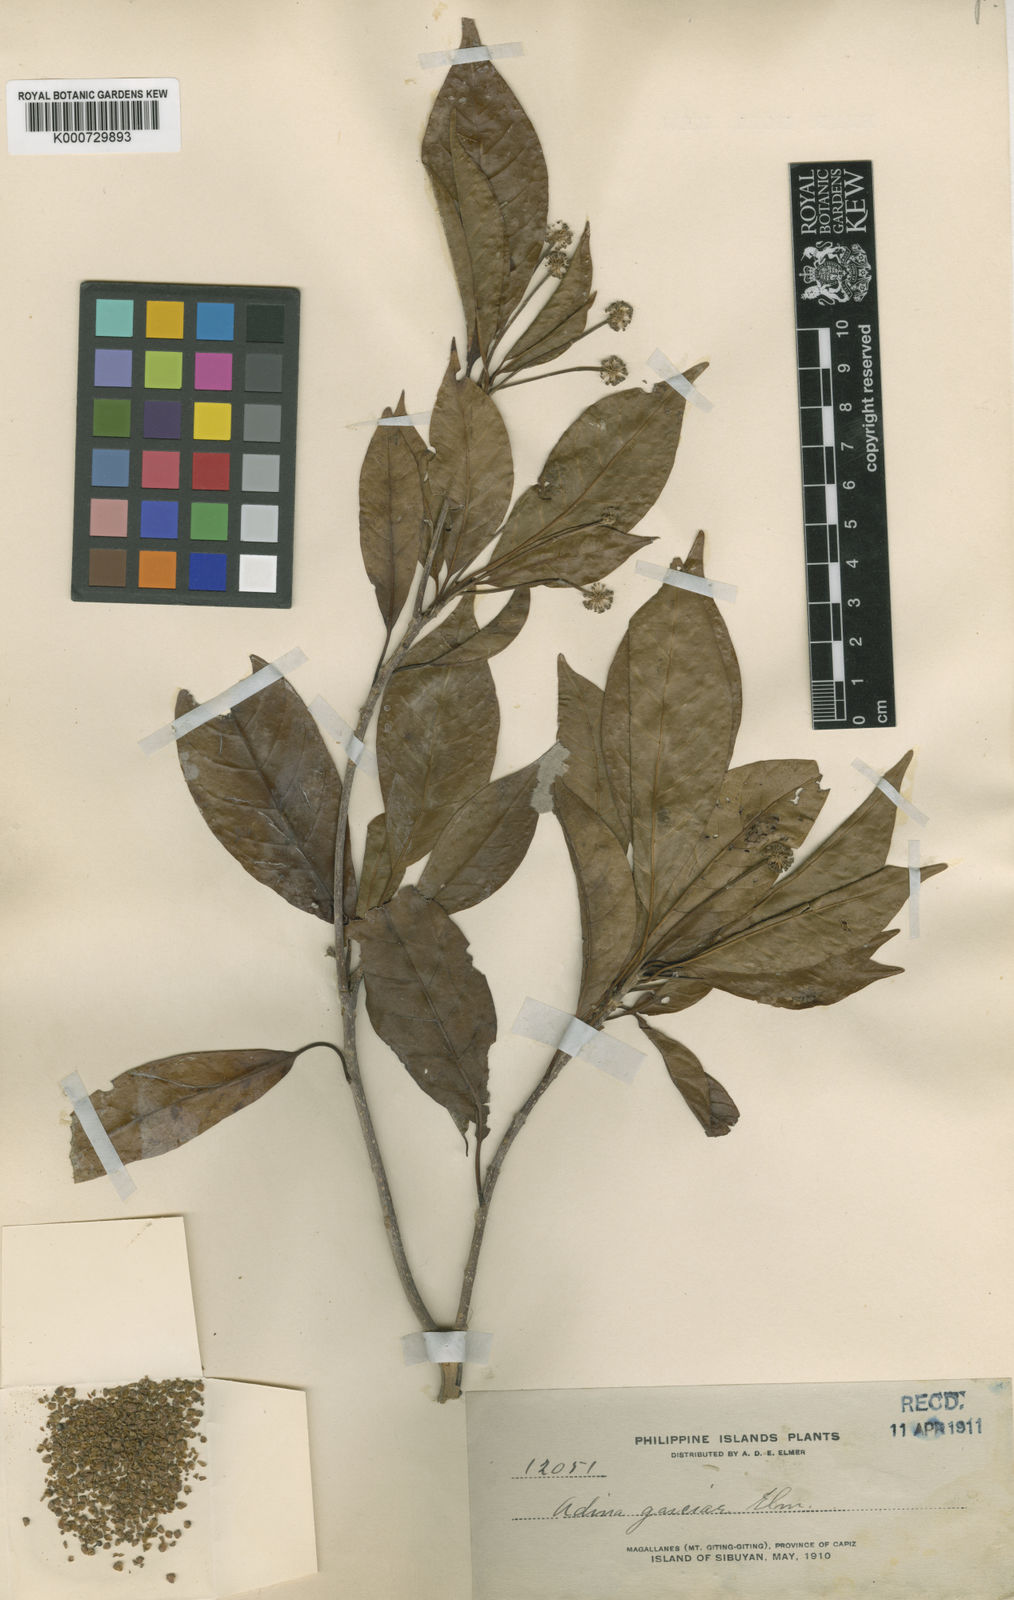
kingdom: Plantae
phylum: Tracheophyta
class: Magnoliopsida
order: Gentianales
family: Rubiaceae
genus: Adina
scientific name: Adina multifolia
